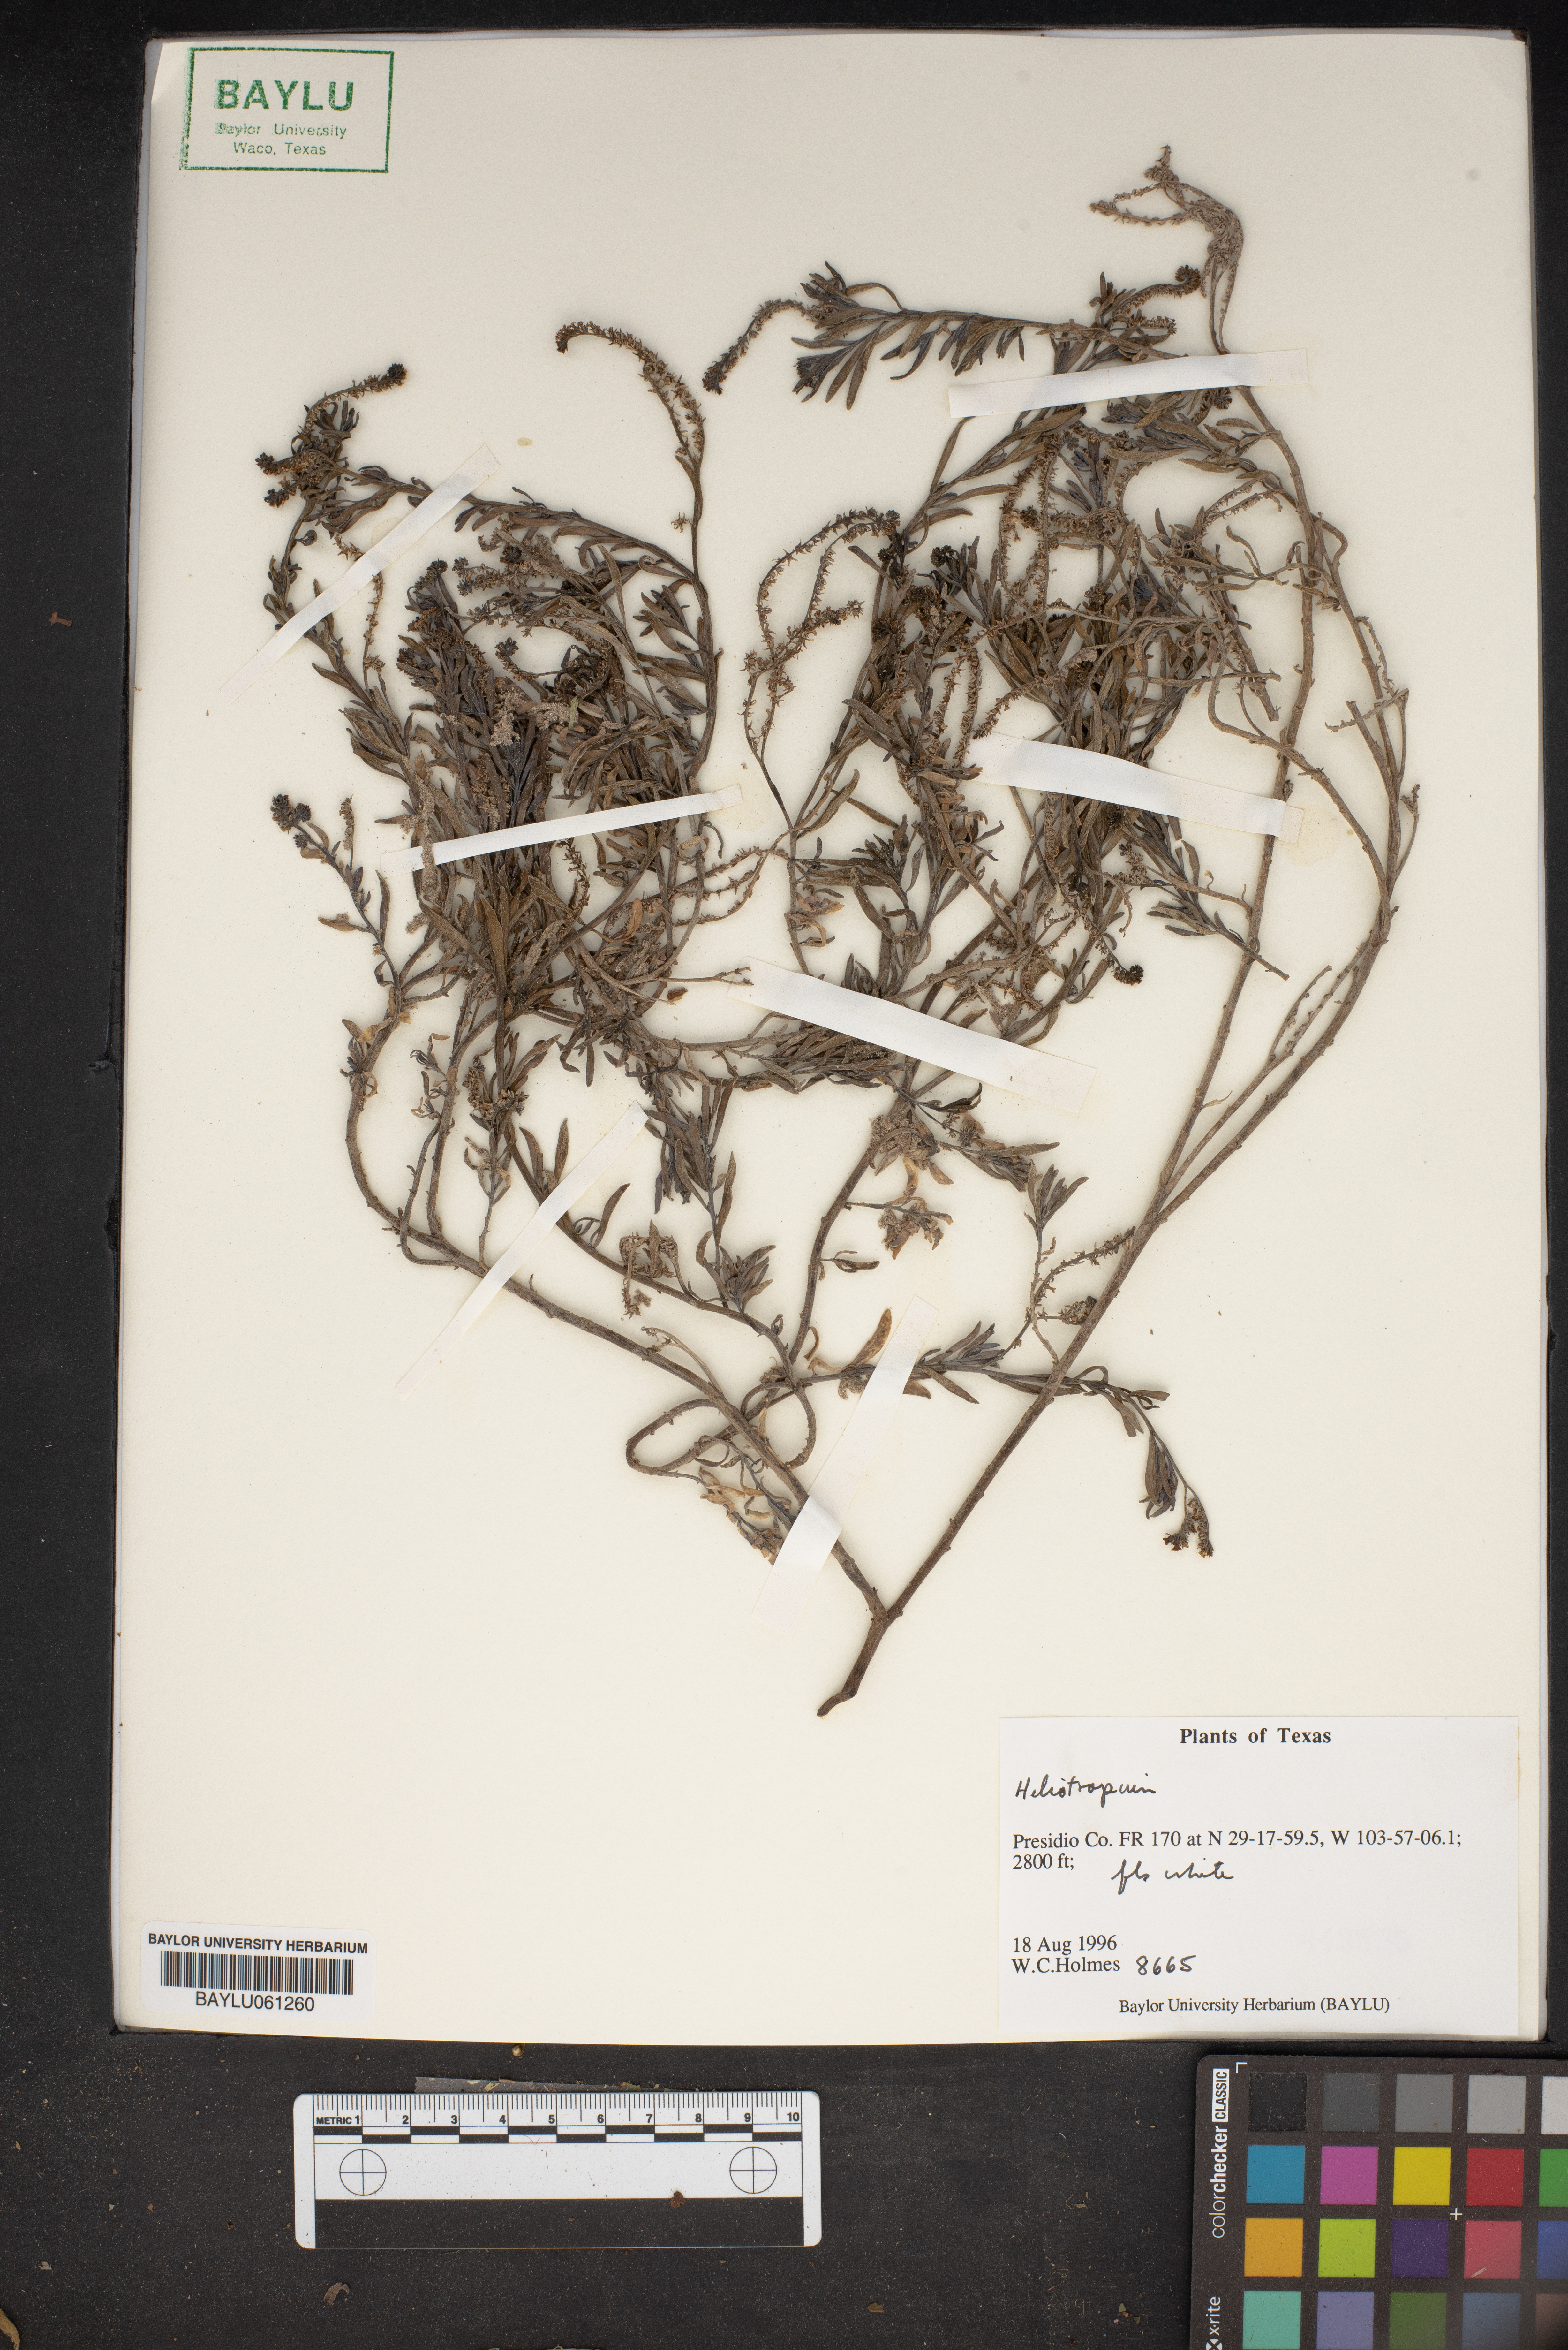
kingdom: Plantae
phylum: Tracheophyta
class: Magnoliopsida
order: Boraginales
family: Heliotropiaceae
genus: Heliotropium
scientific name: Heliotropium
